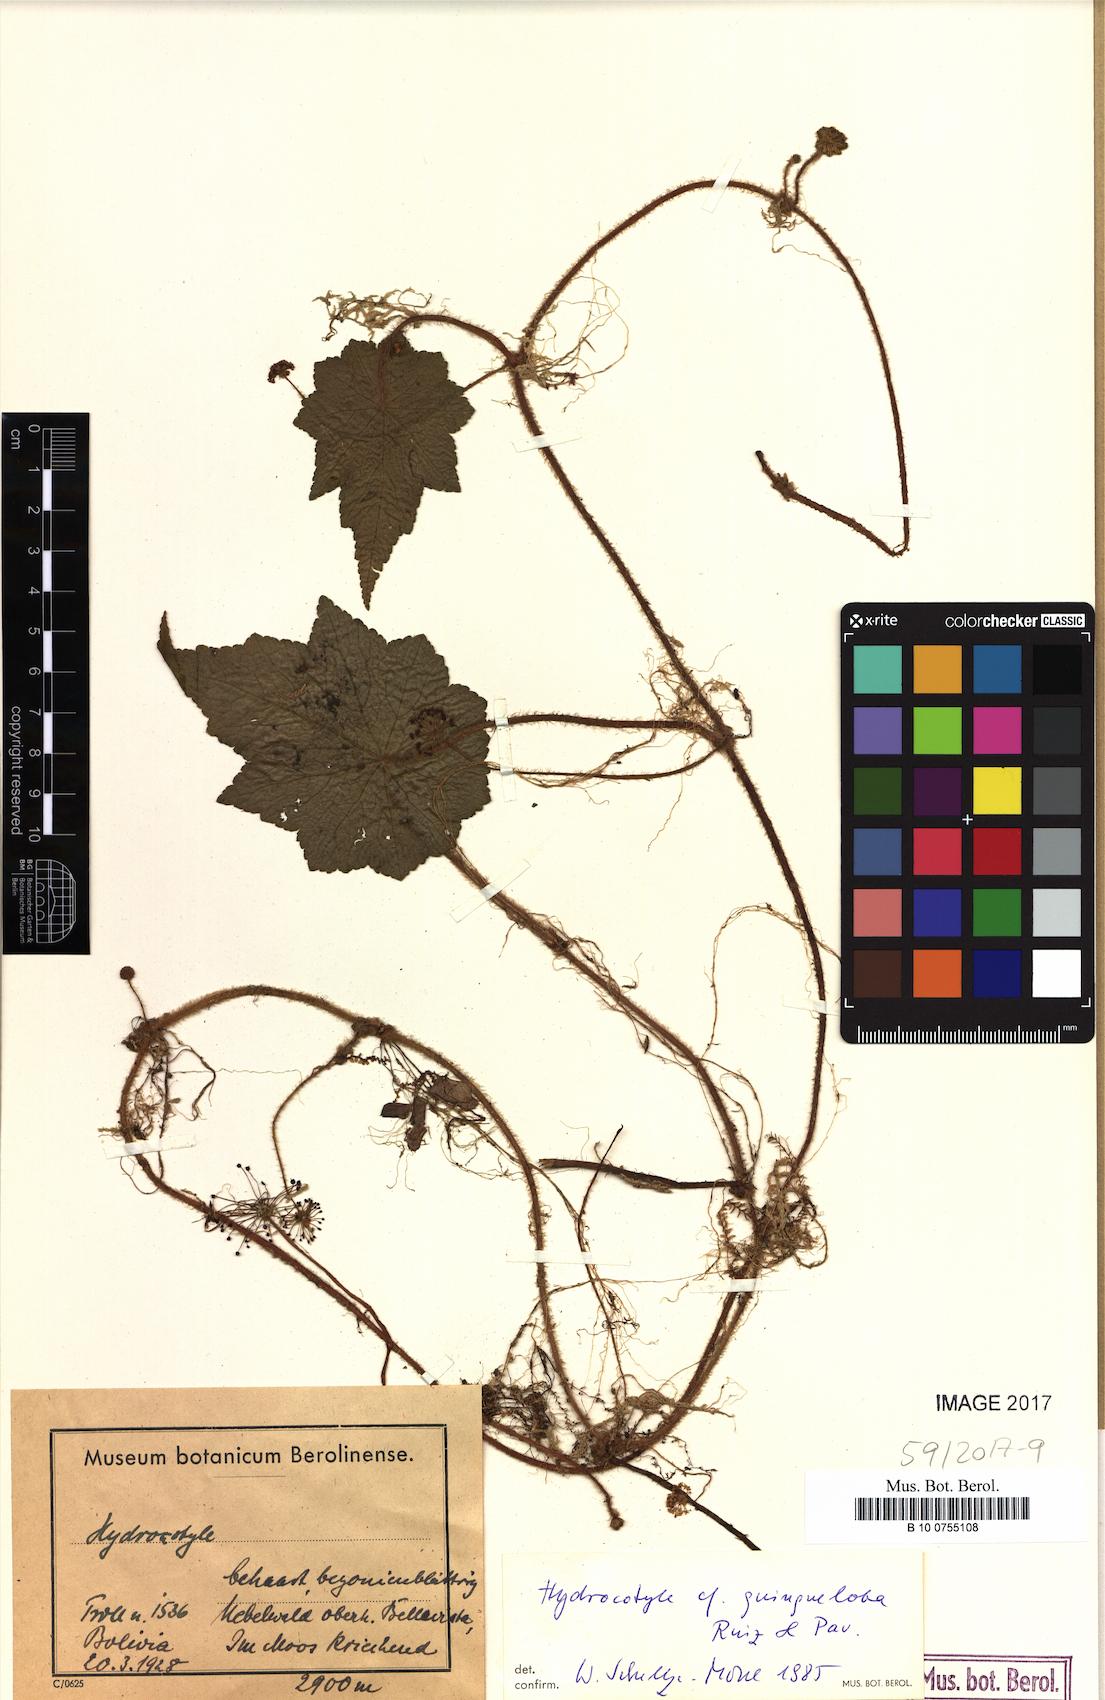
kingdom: Plantae
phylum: Tracheophyta
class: Magnoliopsida
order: Apiales
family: Araliaceae
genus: Hydrocotyle
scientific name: Hydrocotyle quinqueloba
